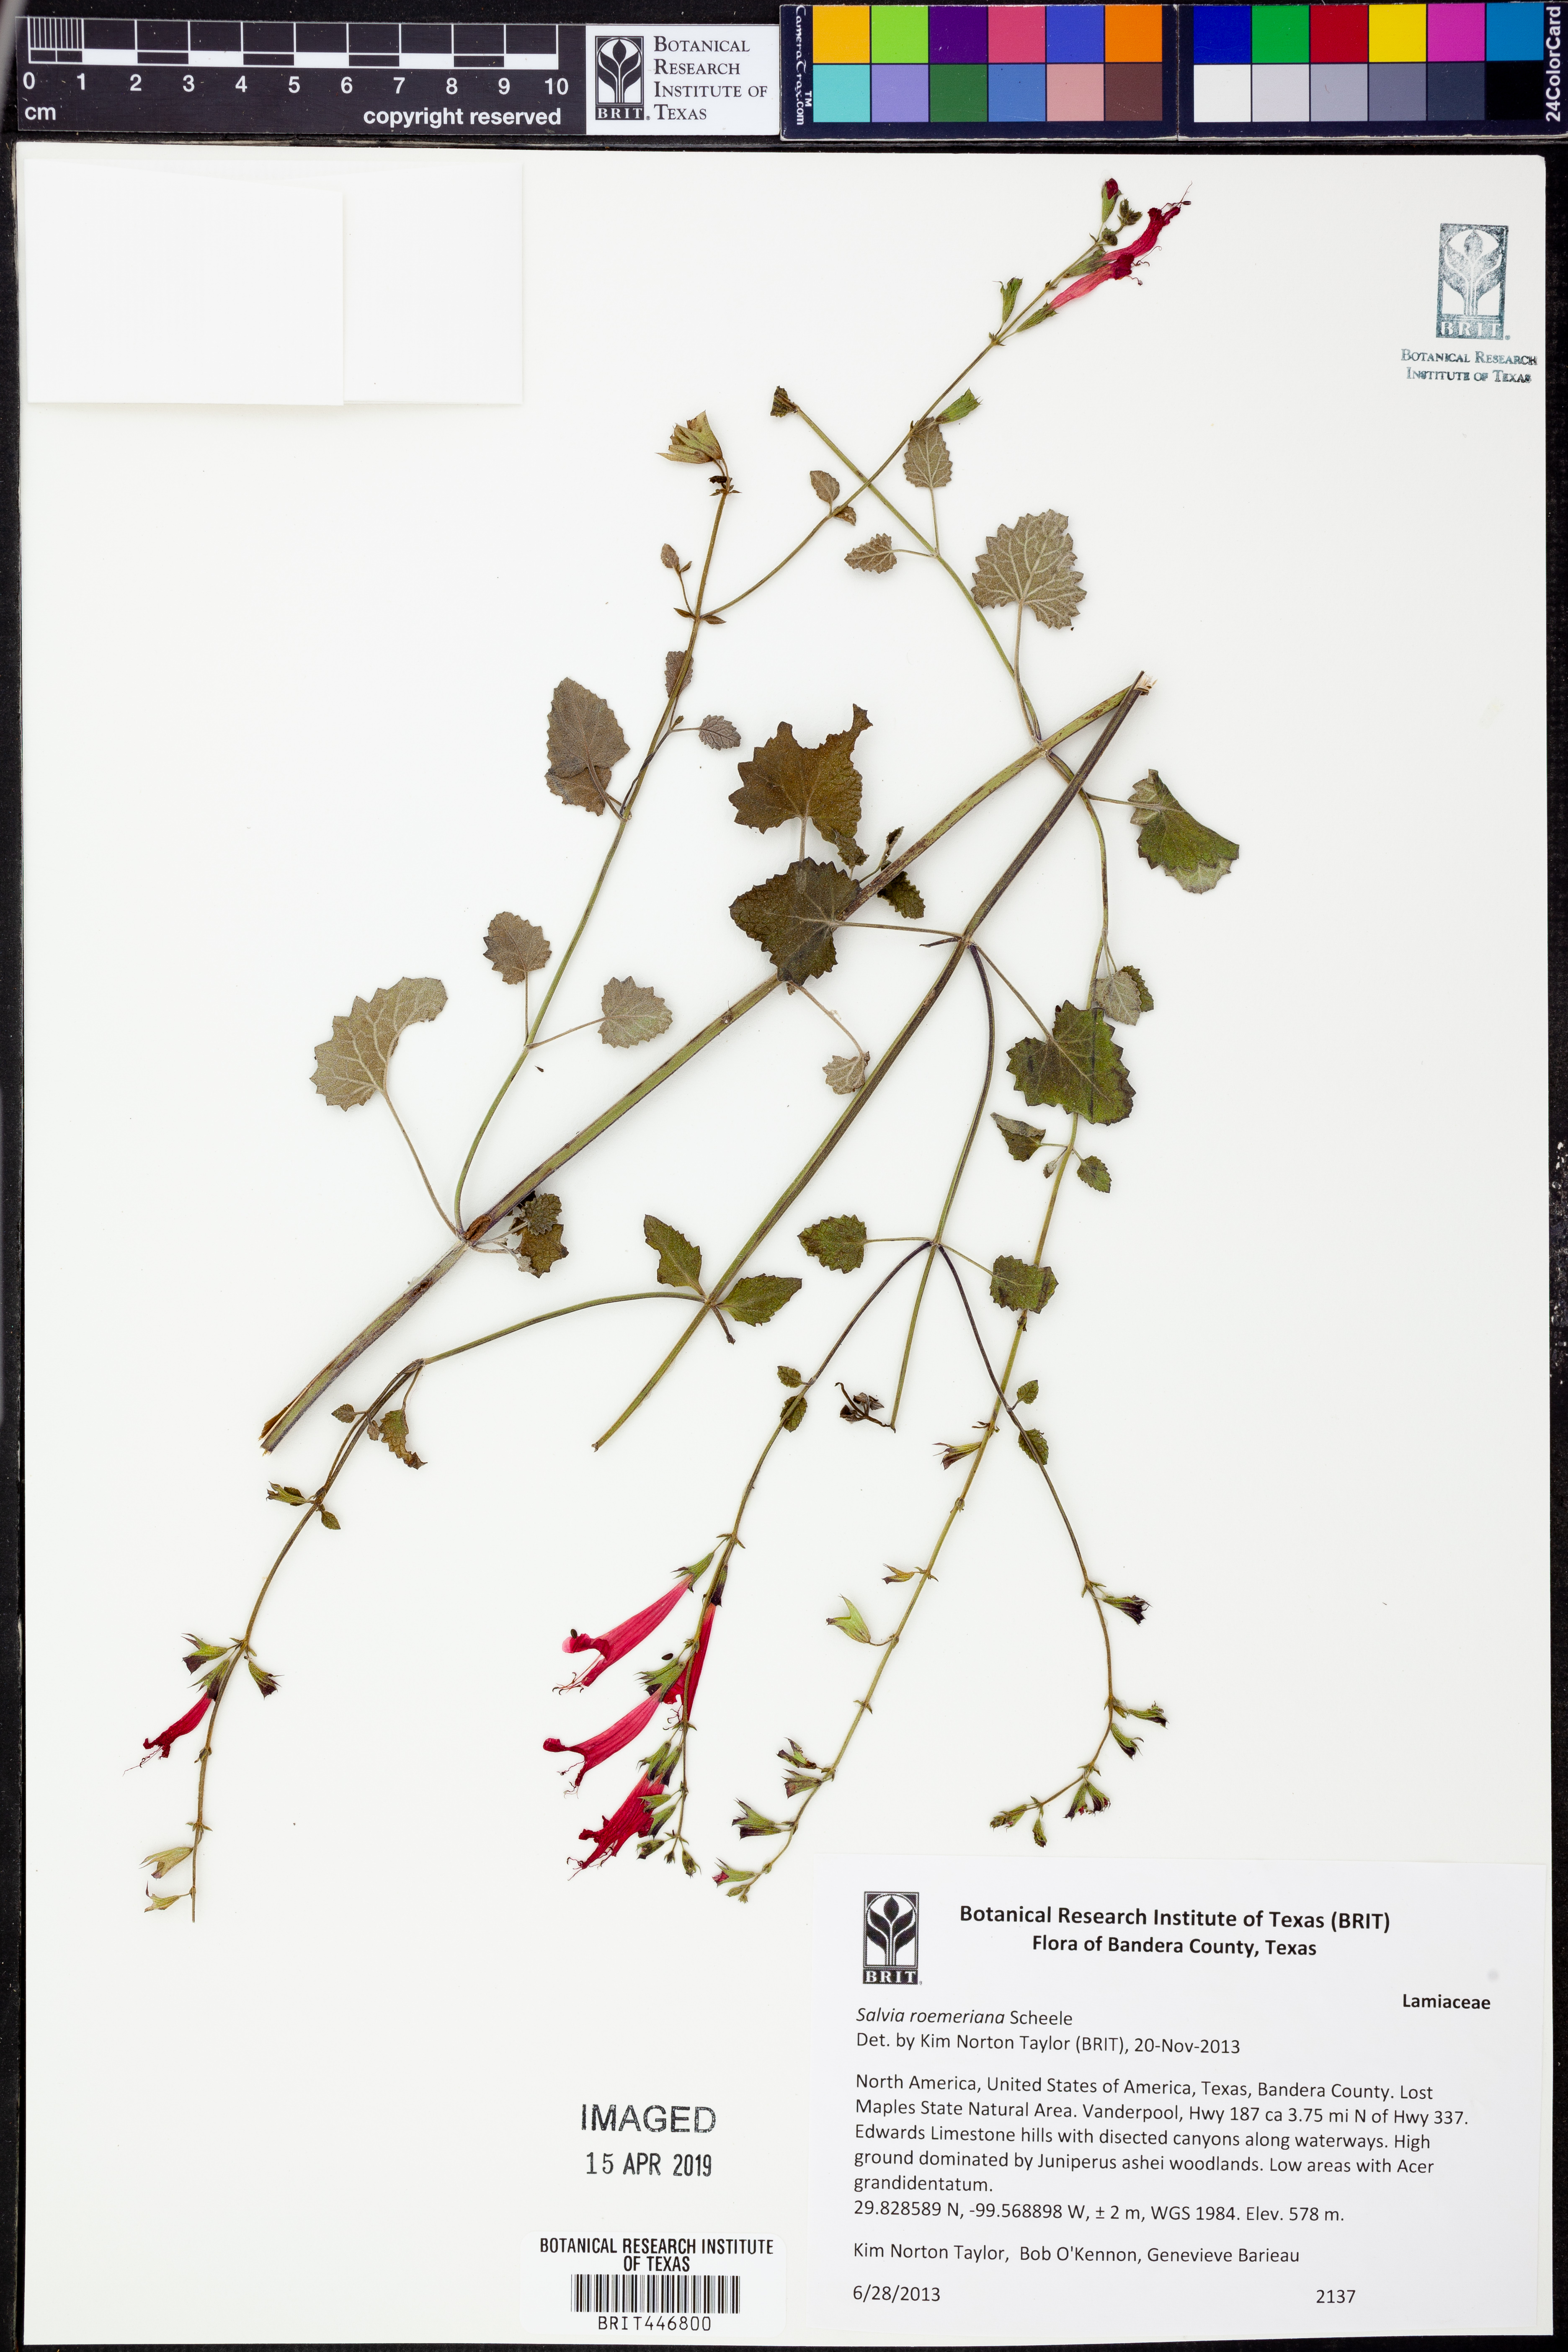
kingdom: Plantae
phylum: Tracheophyta
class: Magnoliopsida
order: Lamiales
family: Lamiaceae
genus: Salvia
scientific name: Salvia roemeriana
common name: Cedar sage
